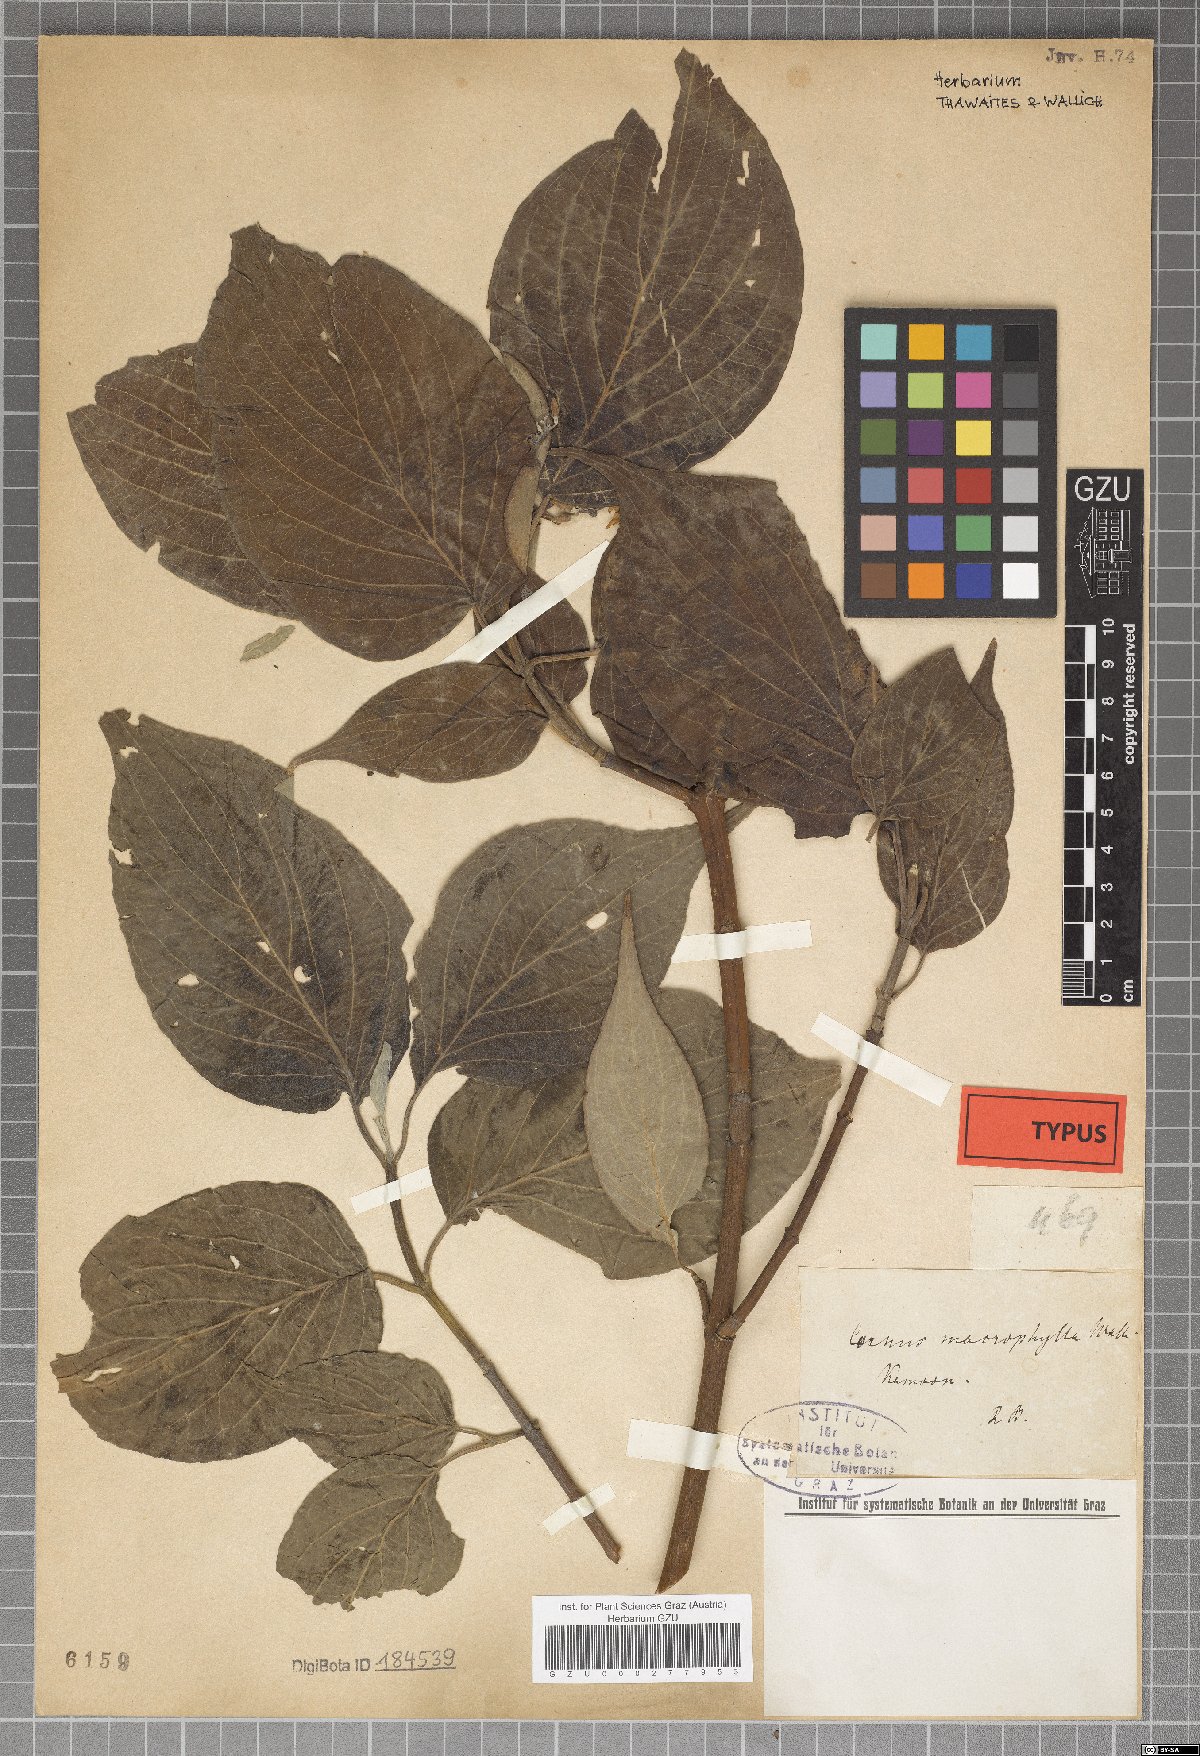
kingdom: Plantae
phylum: Tracheophyta
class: Magnoliopsida
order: Cornales
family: Cornaceae
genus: Cornus
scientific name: Cornus macrophylla
